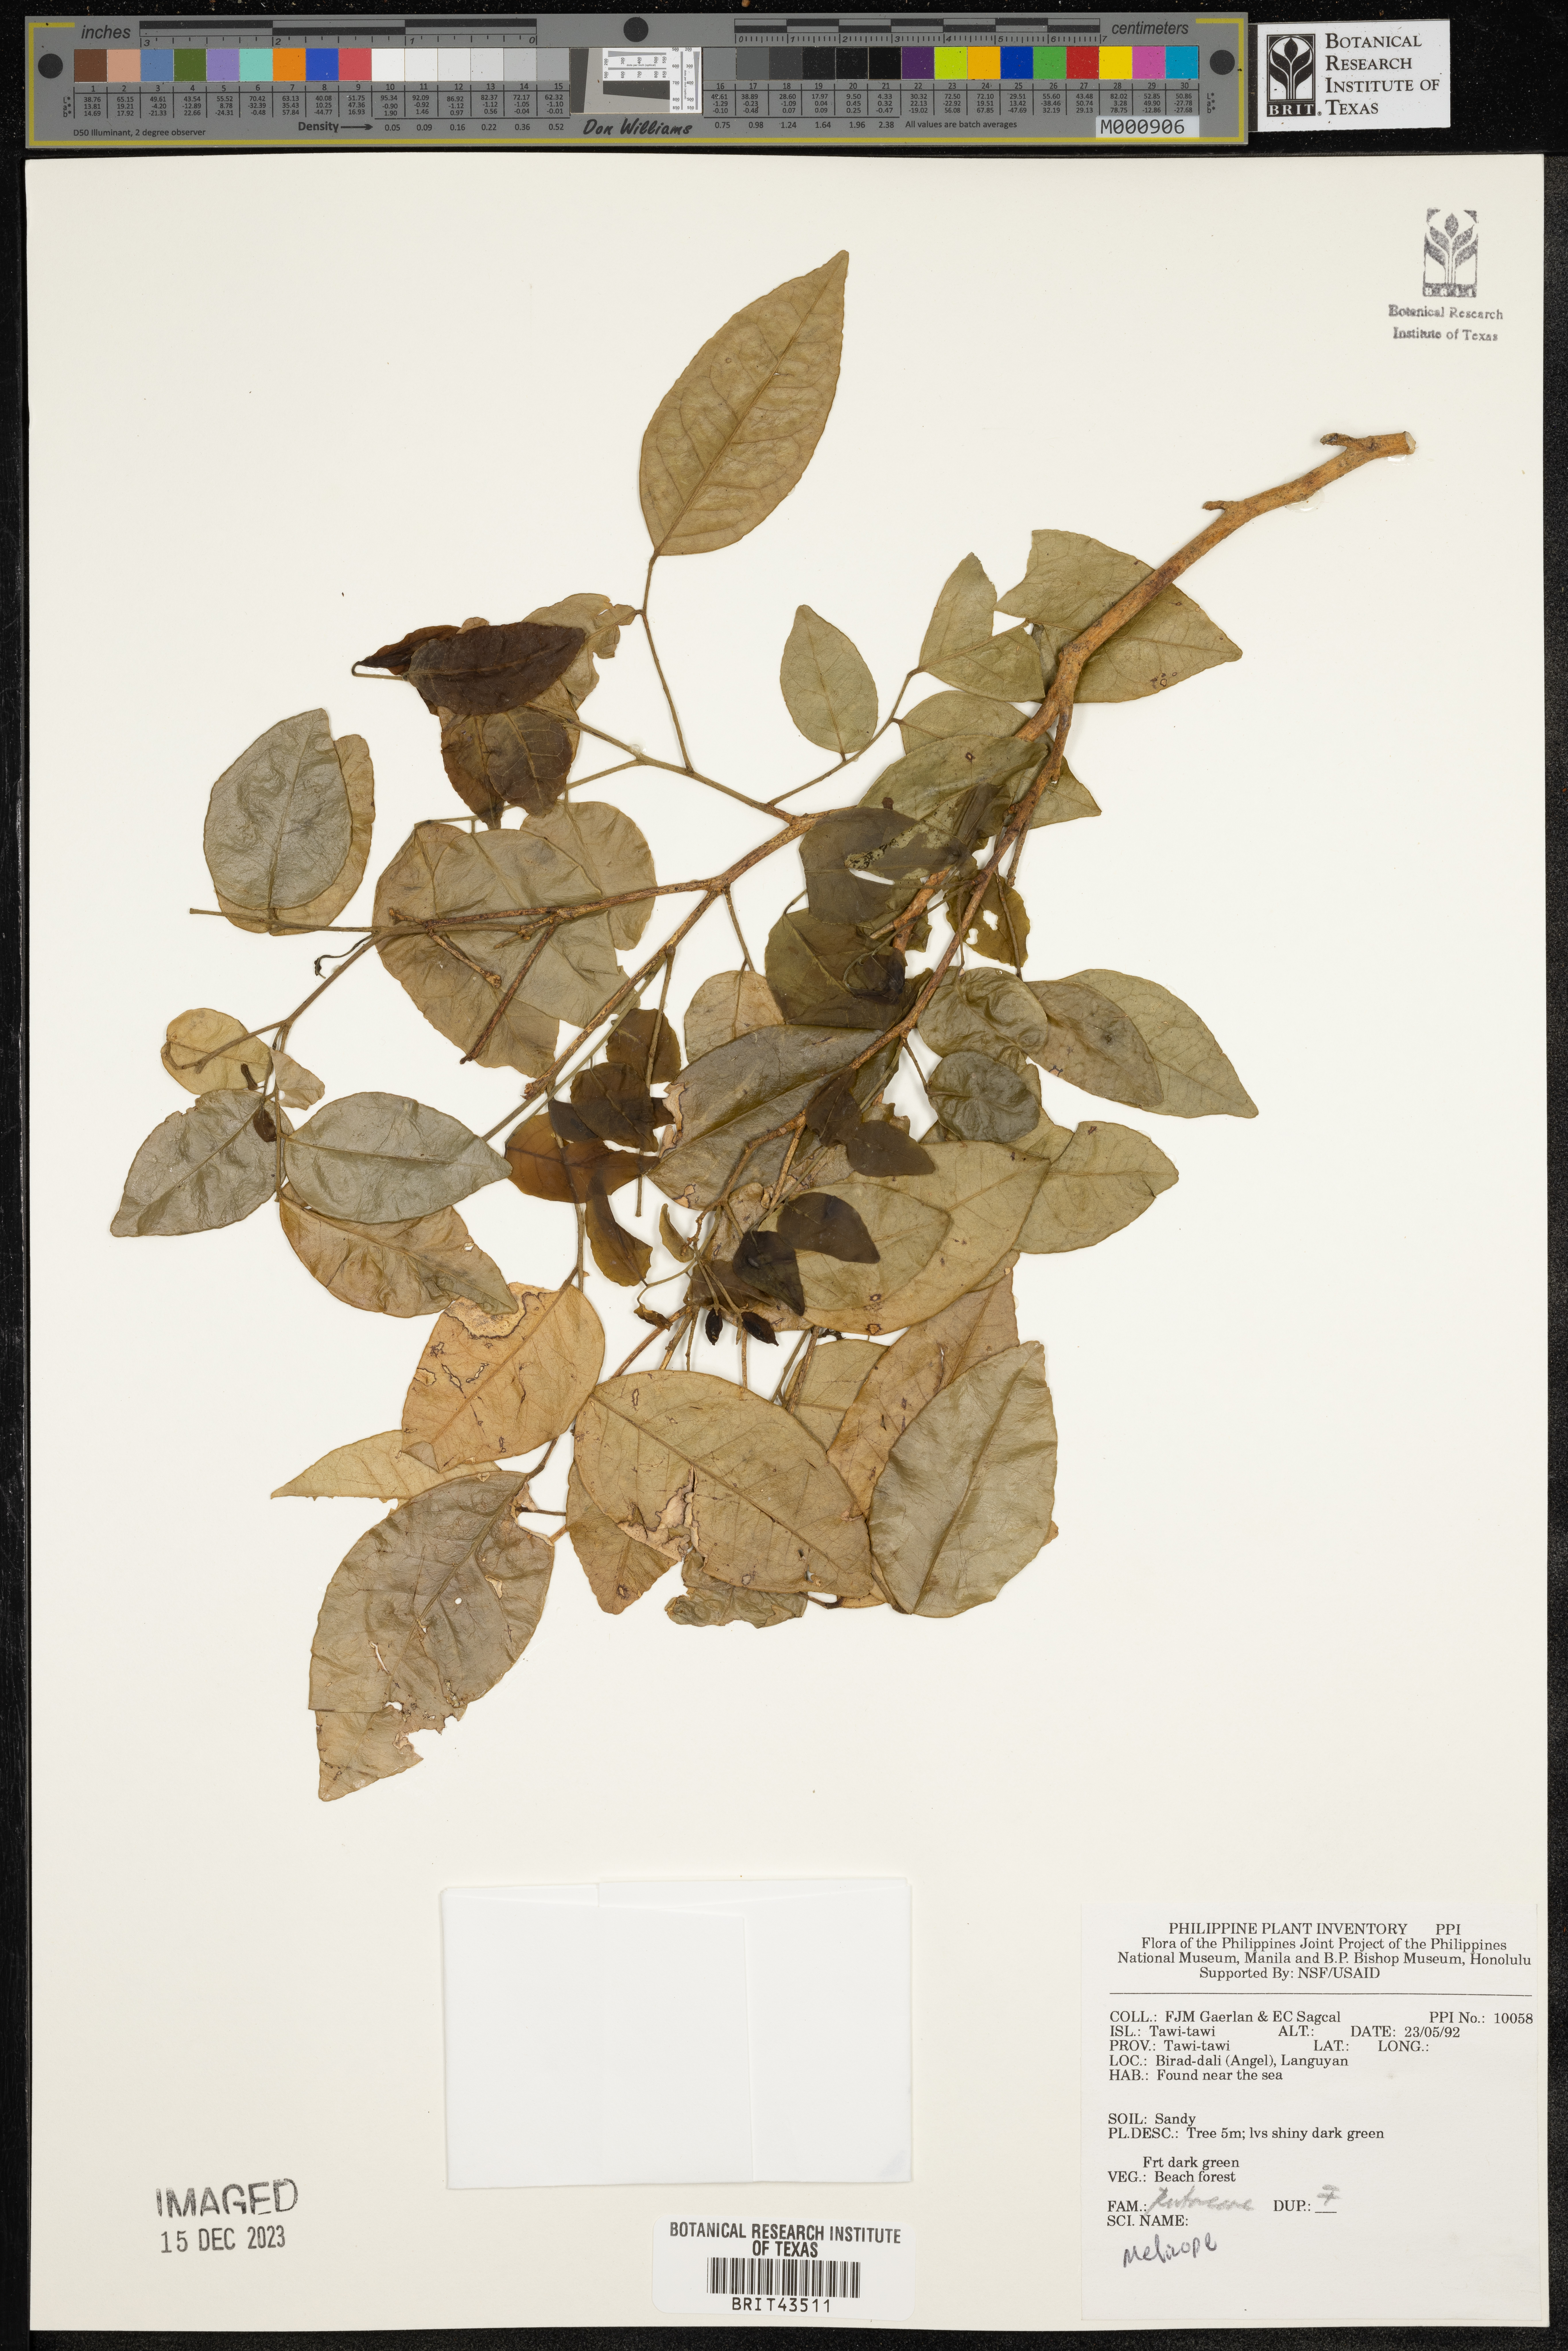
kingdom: Plantae
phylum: Tracheophyta
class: Magnoliopsida
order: Sapindales
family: Rutaceae
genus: Melicope
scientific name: Melicope
